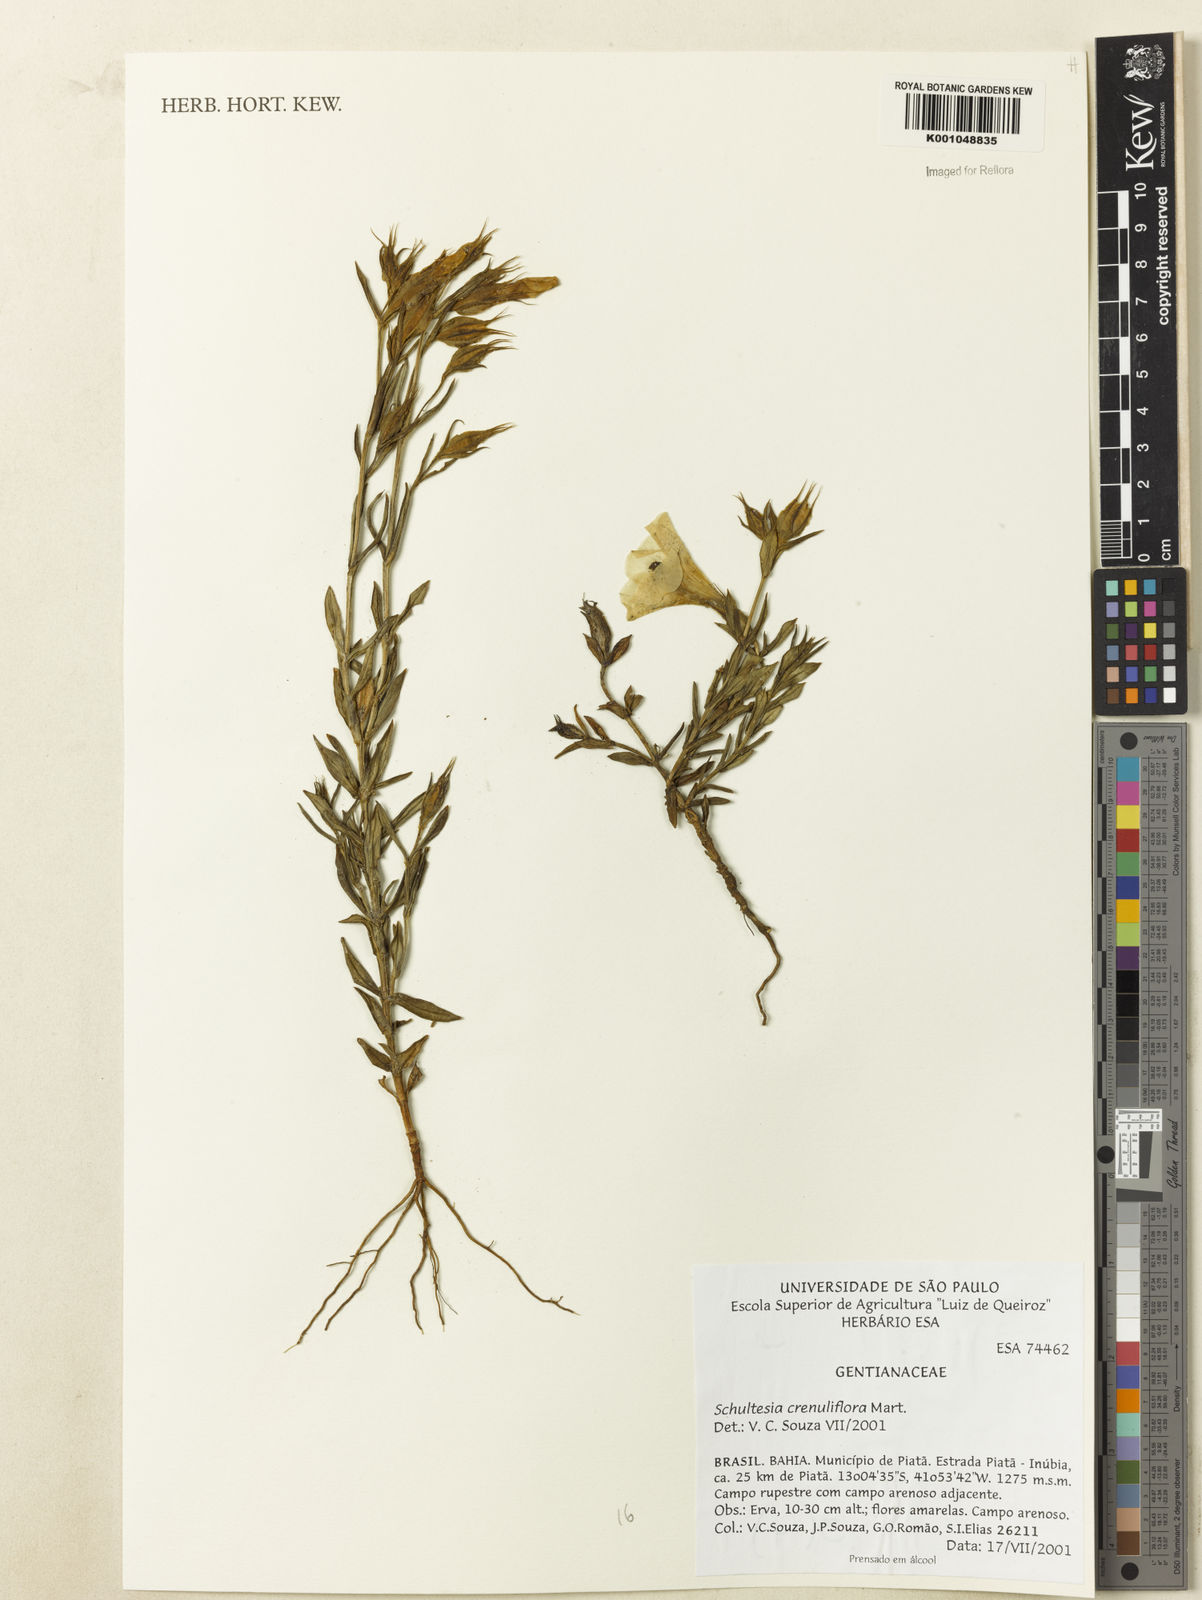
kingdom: Plantae
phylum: Tracheophyta
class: Magnoliopsida
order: Gentianales
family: Gentianaceae
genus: Schultesia
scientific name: Schultesia crenuliflora
